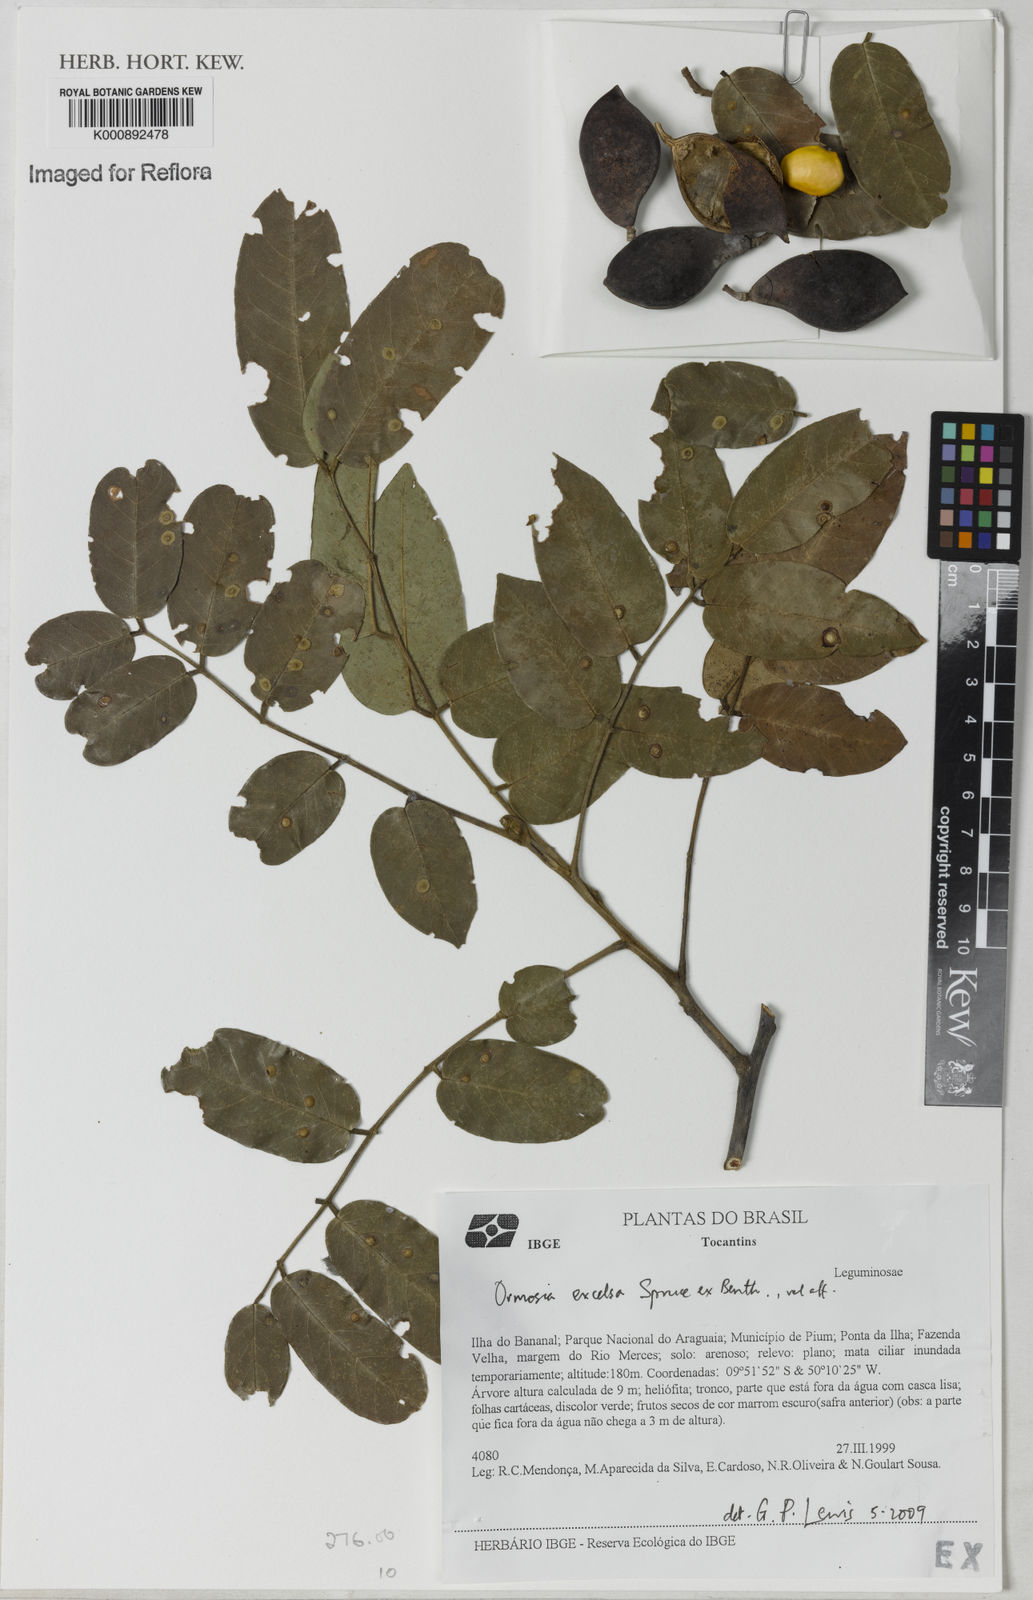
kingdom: Plantae
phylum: Tracheophyta
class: Magnoliopsida
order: Fabales
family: Fabaceae
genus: Ormosia
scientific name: Ormosia excelsa
